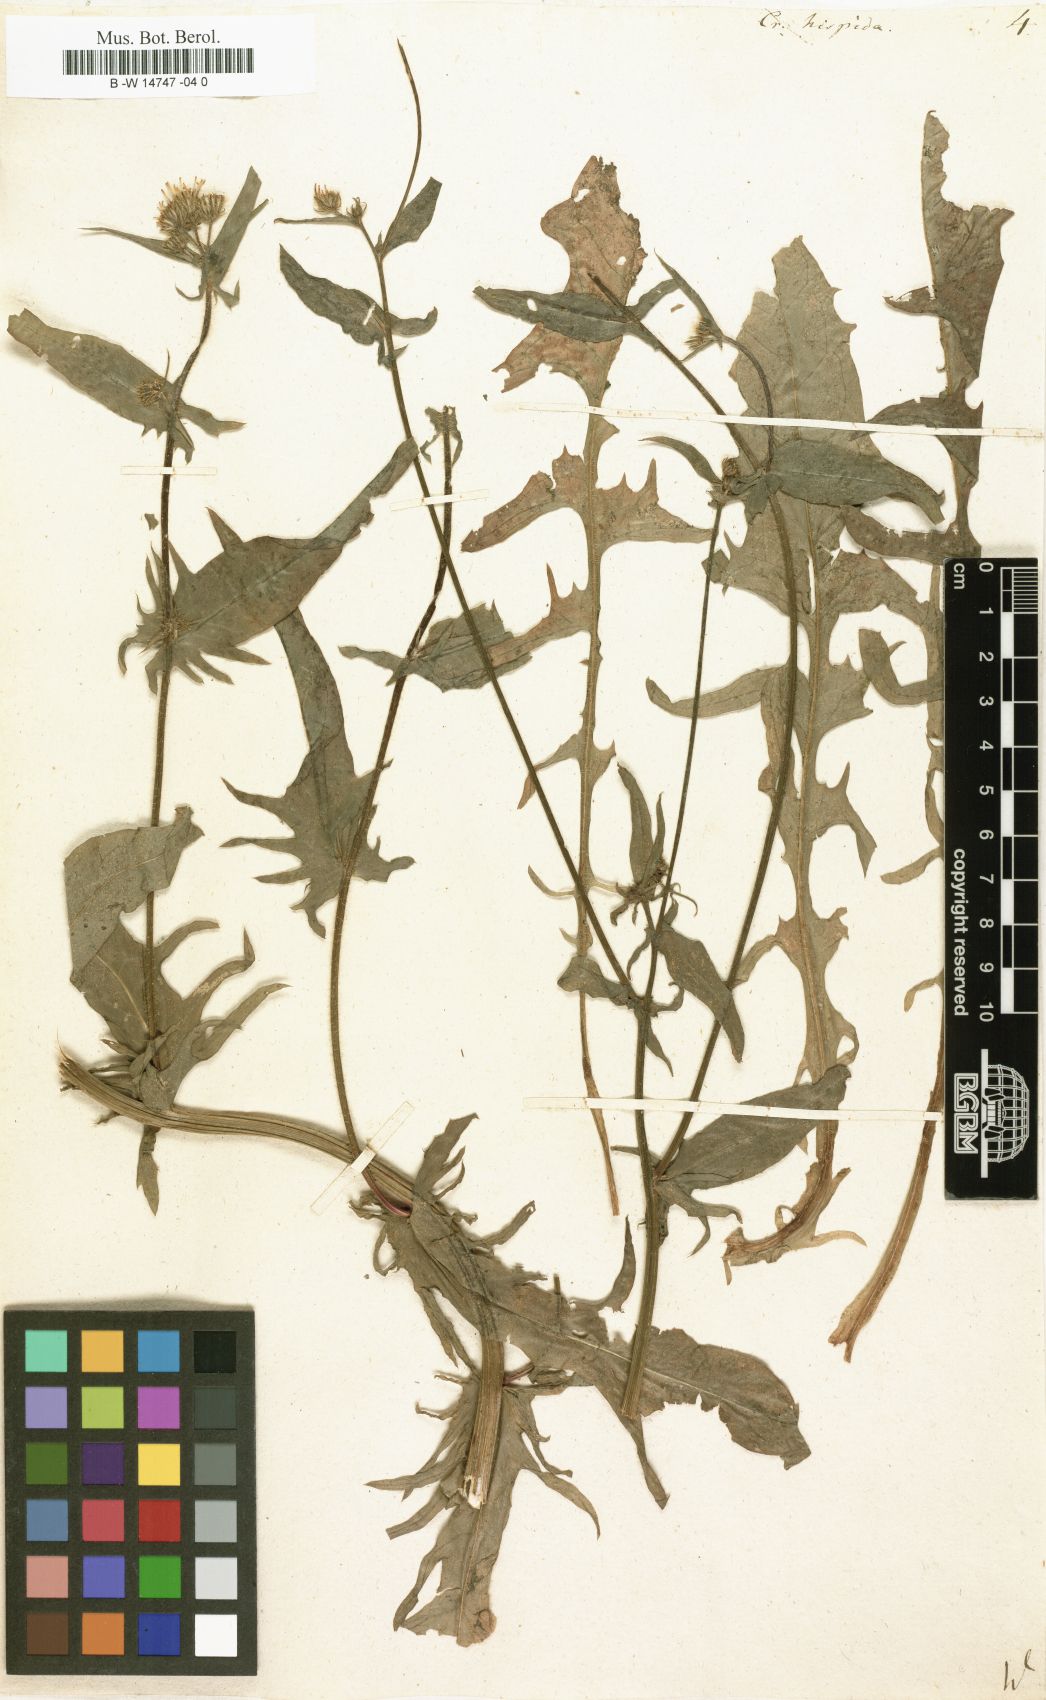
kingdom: Plantae
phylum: Tracheophyta
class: Magnoliopsida
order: Asterales
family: Asteraceae
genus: Crepis
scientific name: Crepis setosa
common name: Bristly hawk's-beard
